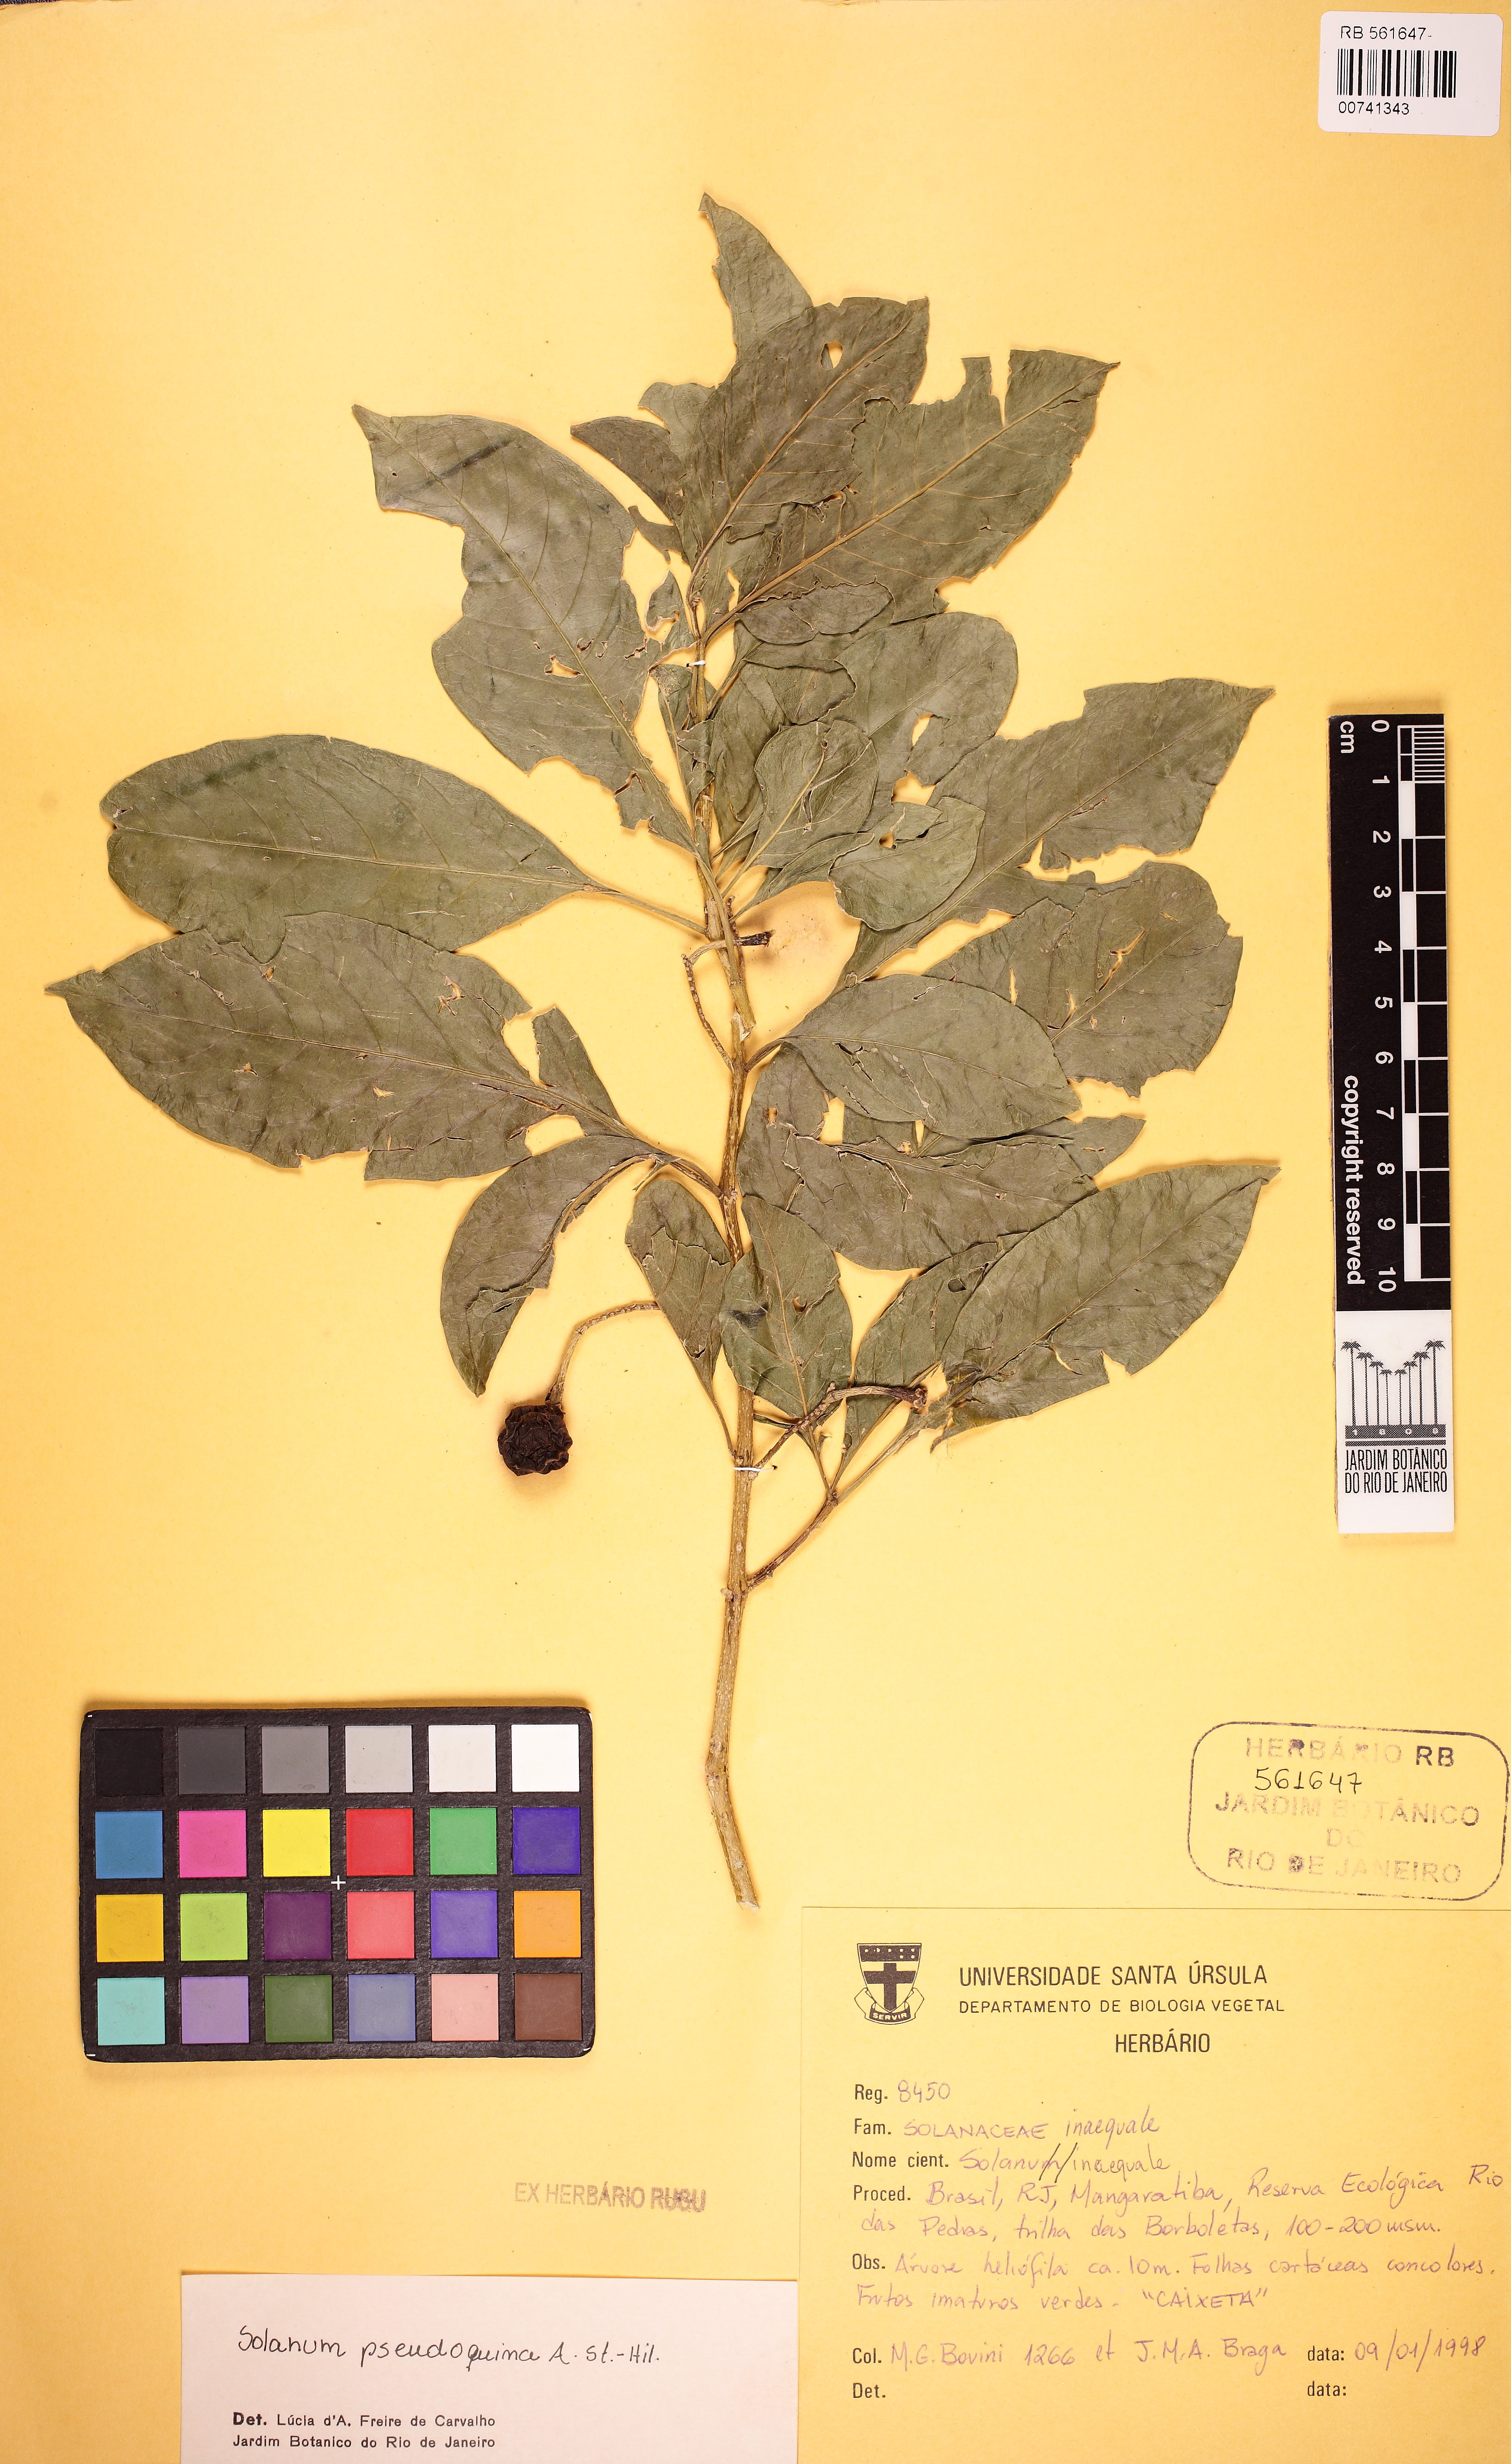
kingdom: Plantae
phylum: Tracheophyta
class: Magnoliopsida
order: Solanales
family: Solanaceae
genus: Solanum
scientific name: Solanum pseudoquina
